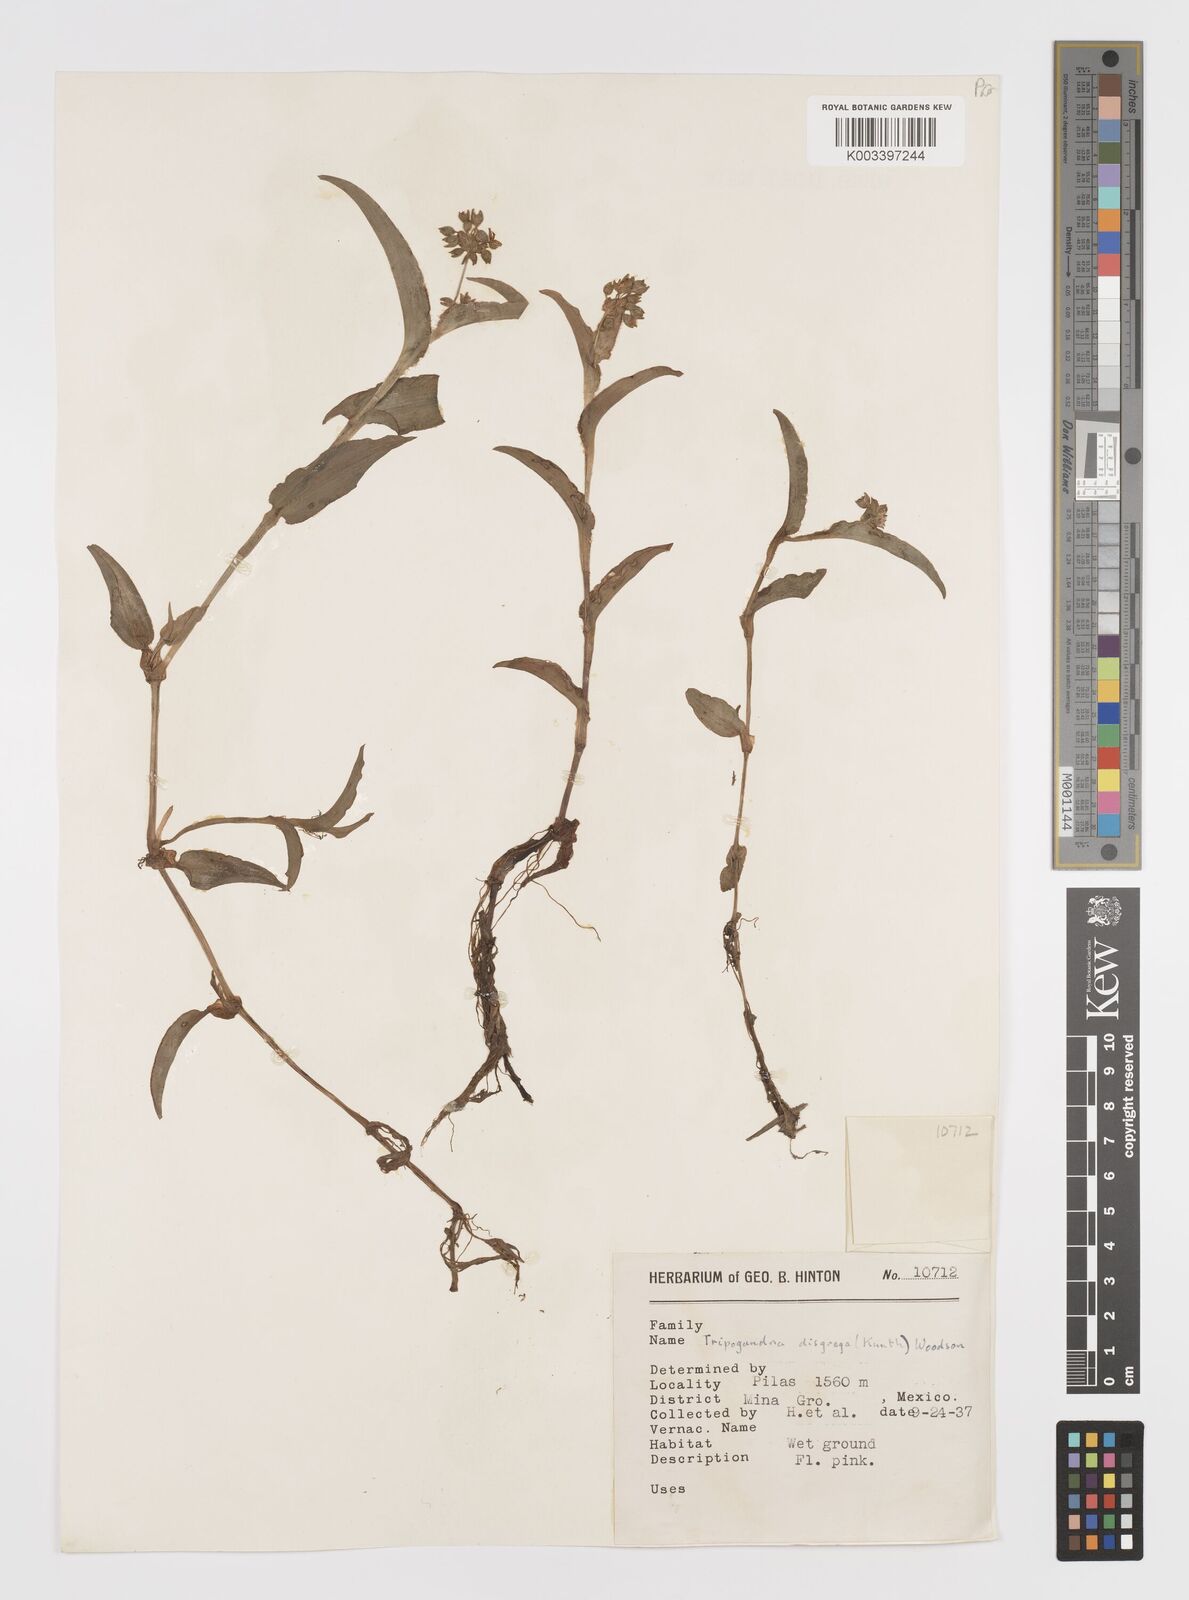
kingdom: Plantae
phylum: Tracheophyta
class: Liliopsida
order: Commelinales
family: Commelinaceae
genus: Callisia
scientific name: Callisia disgrega
